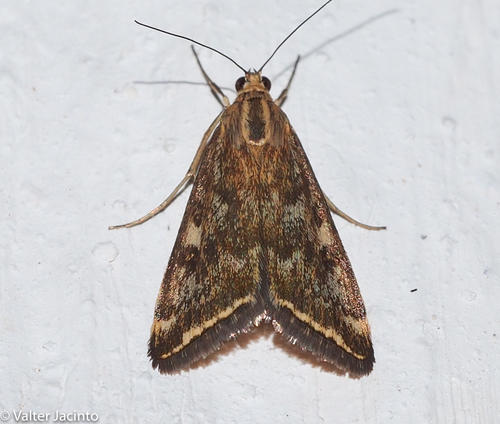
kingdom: Animalia
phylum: Arthropoda
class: Insecta
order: Lepidoptera
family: Crambidae
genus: Loxostege
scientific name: Loxostege sticticalis
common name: Crambid moth
